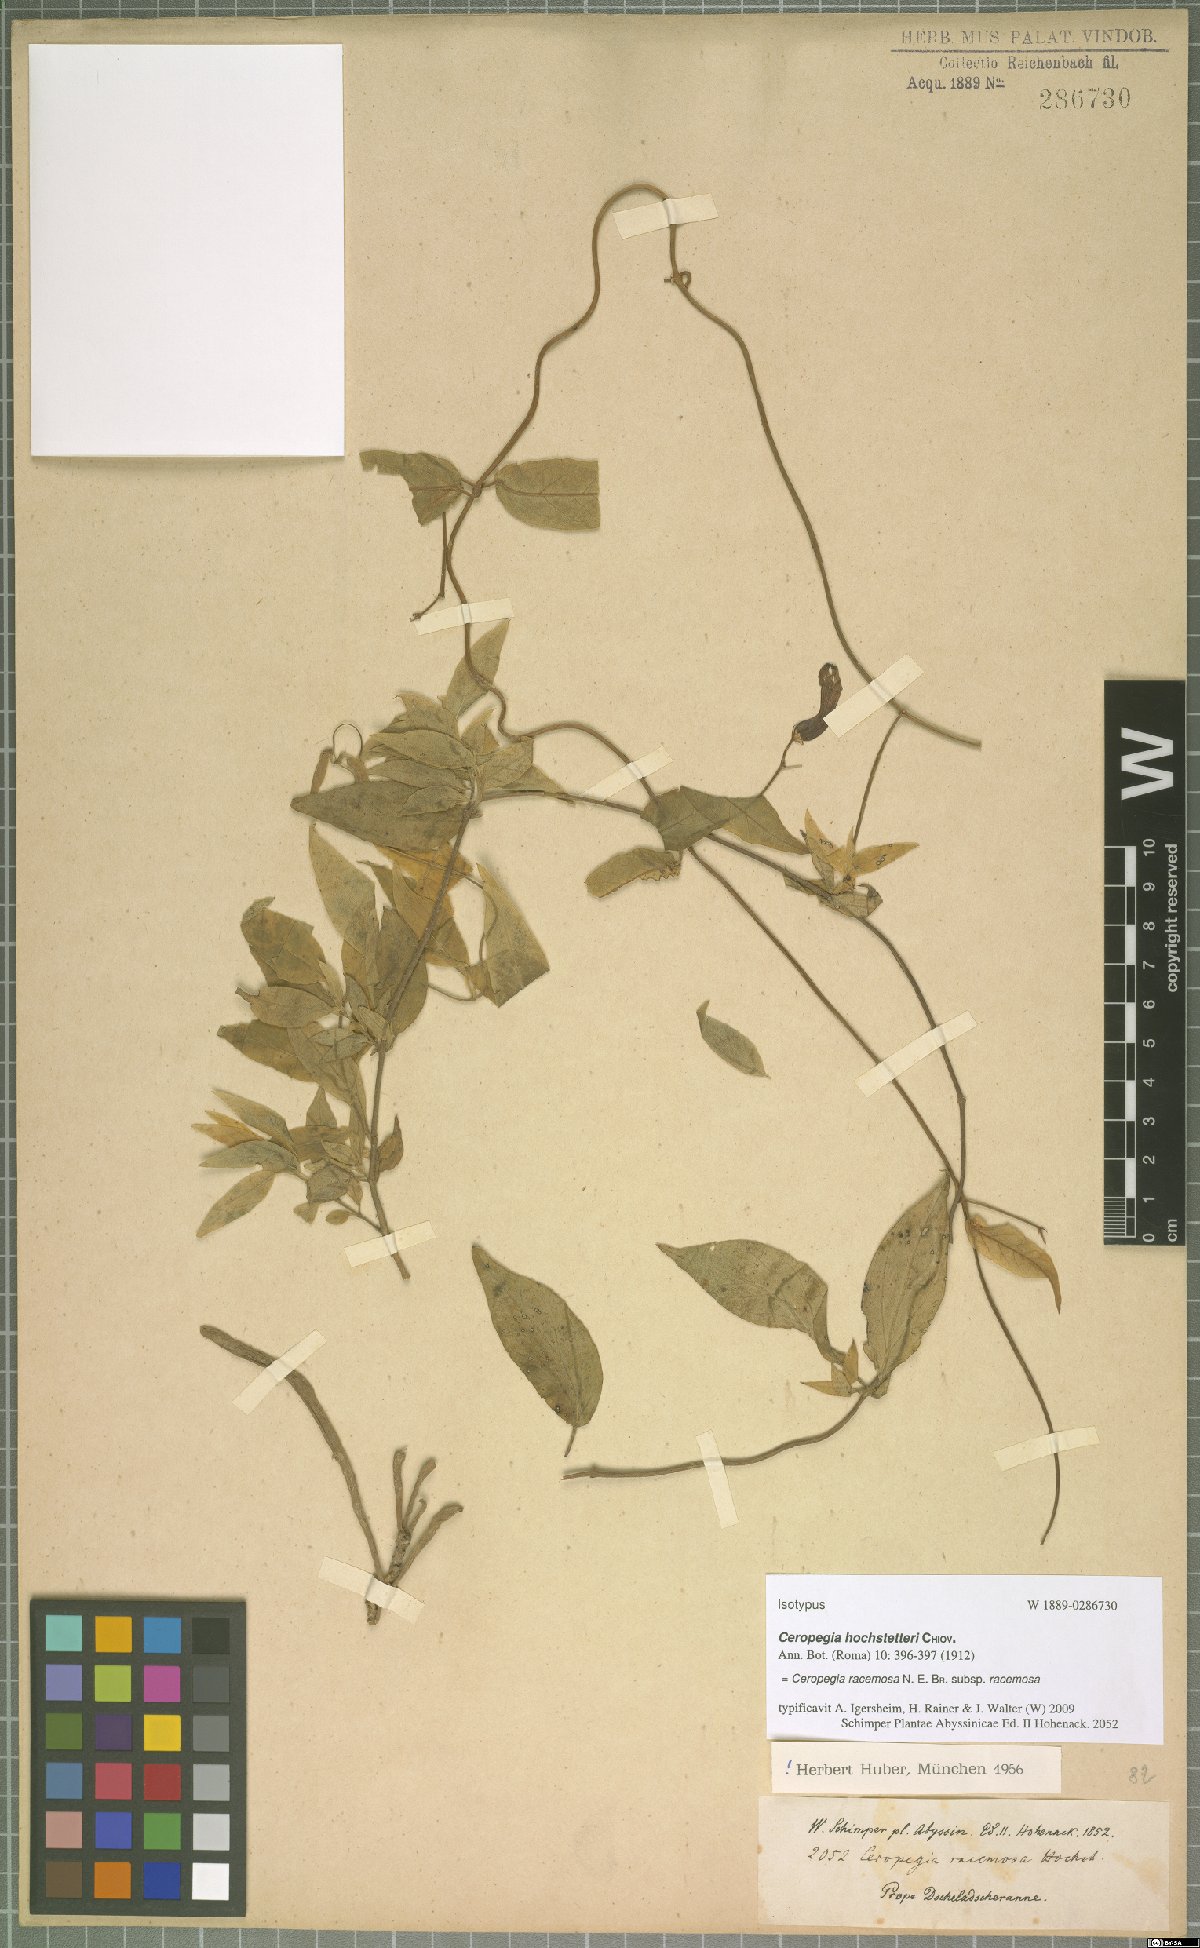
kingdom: Plantae
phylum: Tracheophyta
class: Magnoliopsida
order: Gentianales
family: Apocynaceae
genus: Ceropegia
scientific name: Ceropegia racemosa
